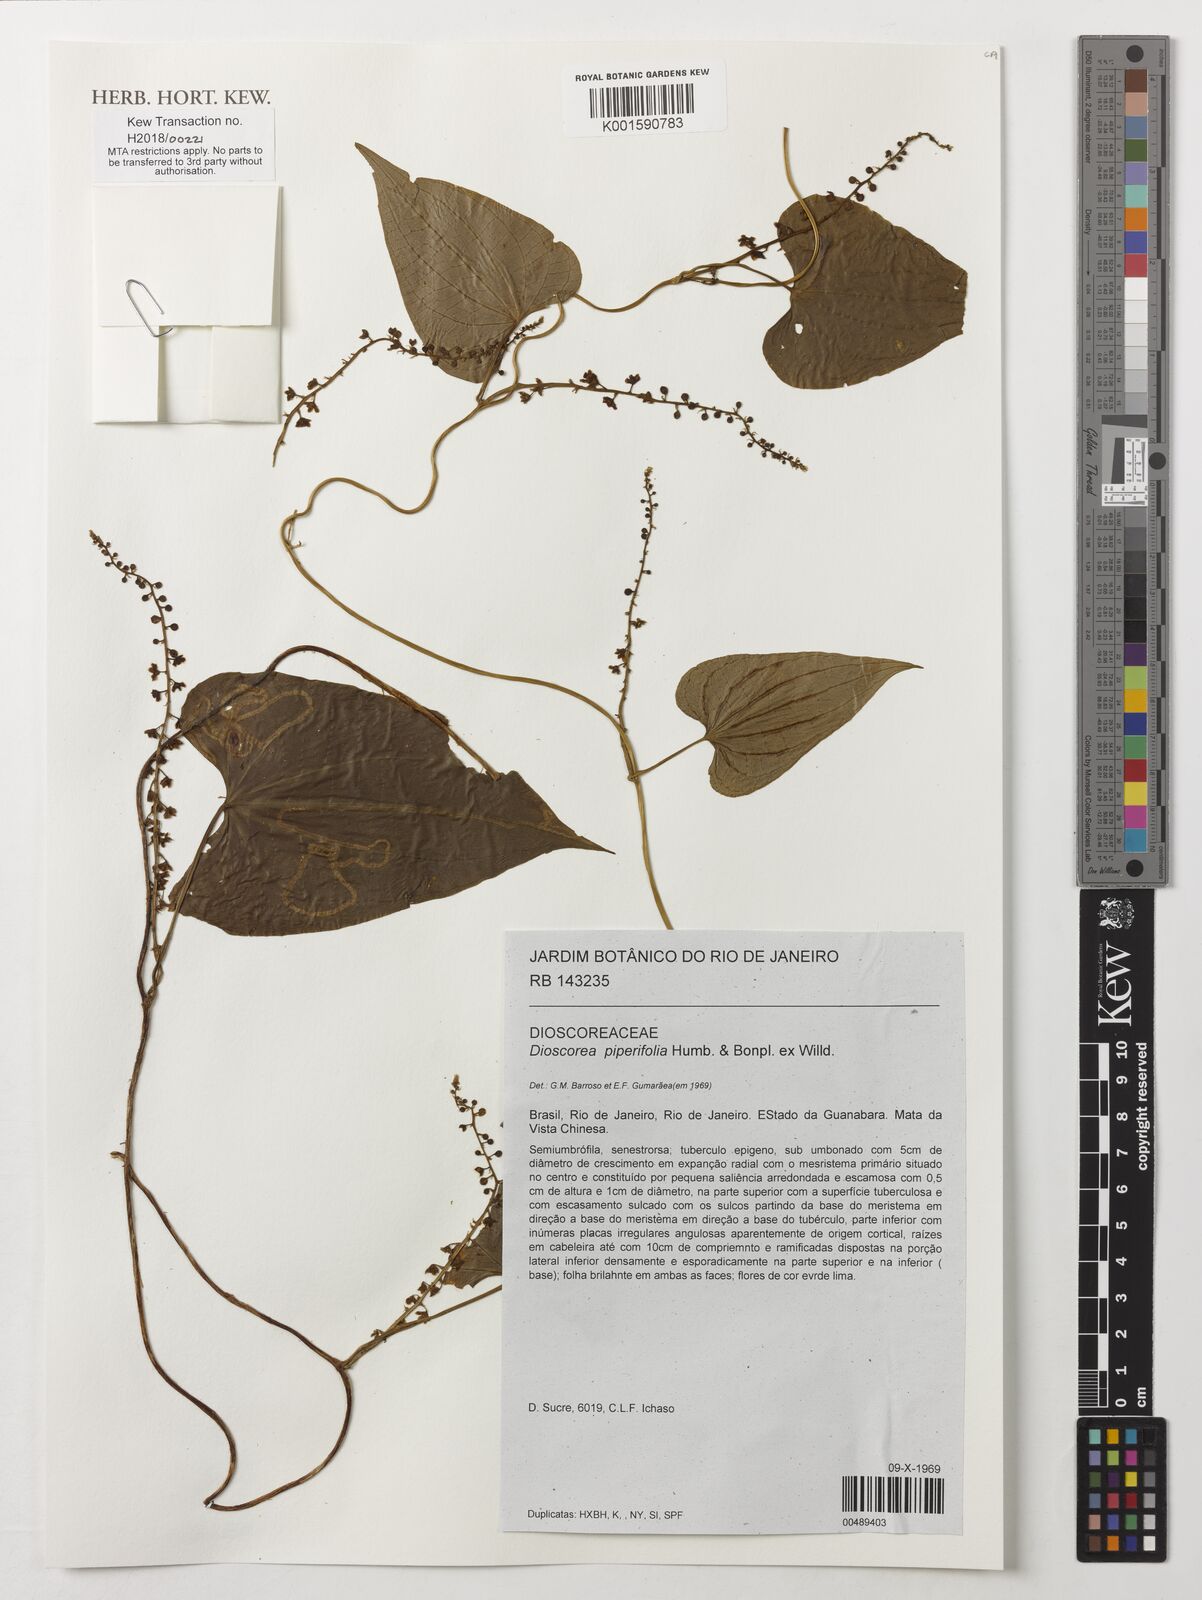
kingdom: Plantae
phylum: Tracheophyta
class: Liliopsida
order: Dioscoreales
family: Dioscoreaceae
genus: Dioscorea
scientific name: Dioscorea piperifolia
